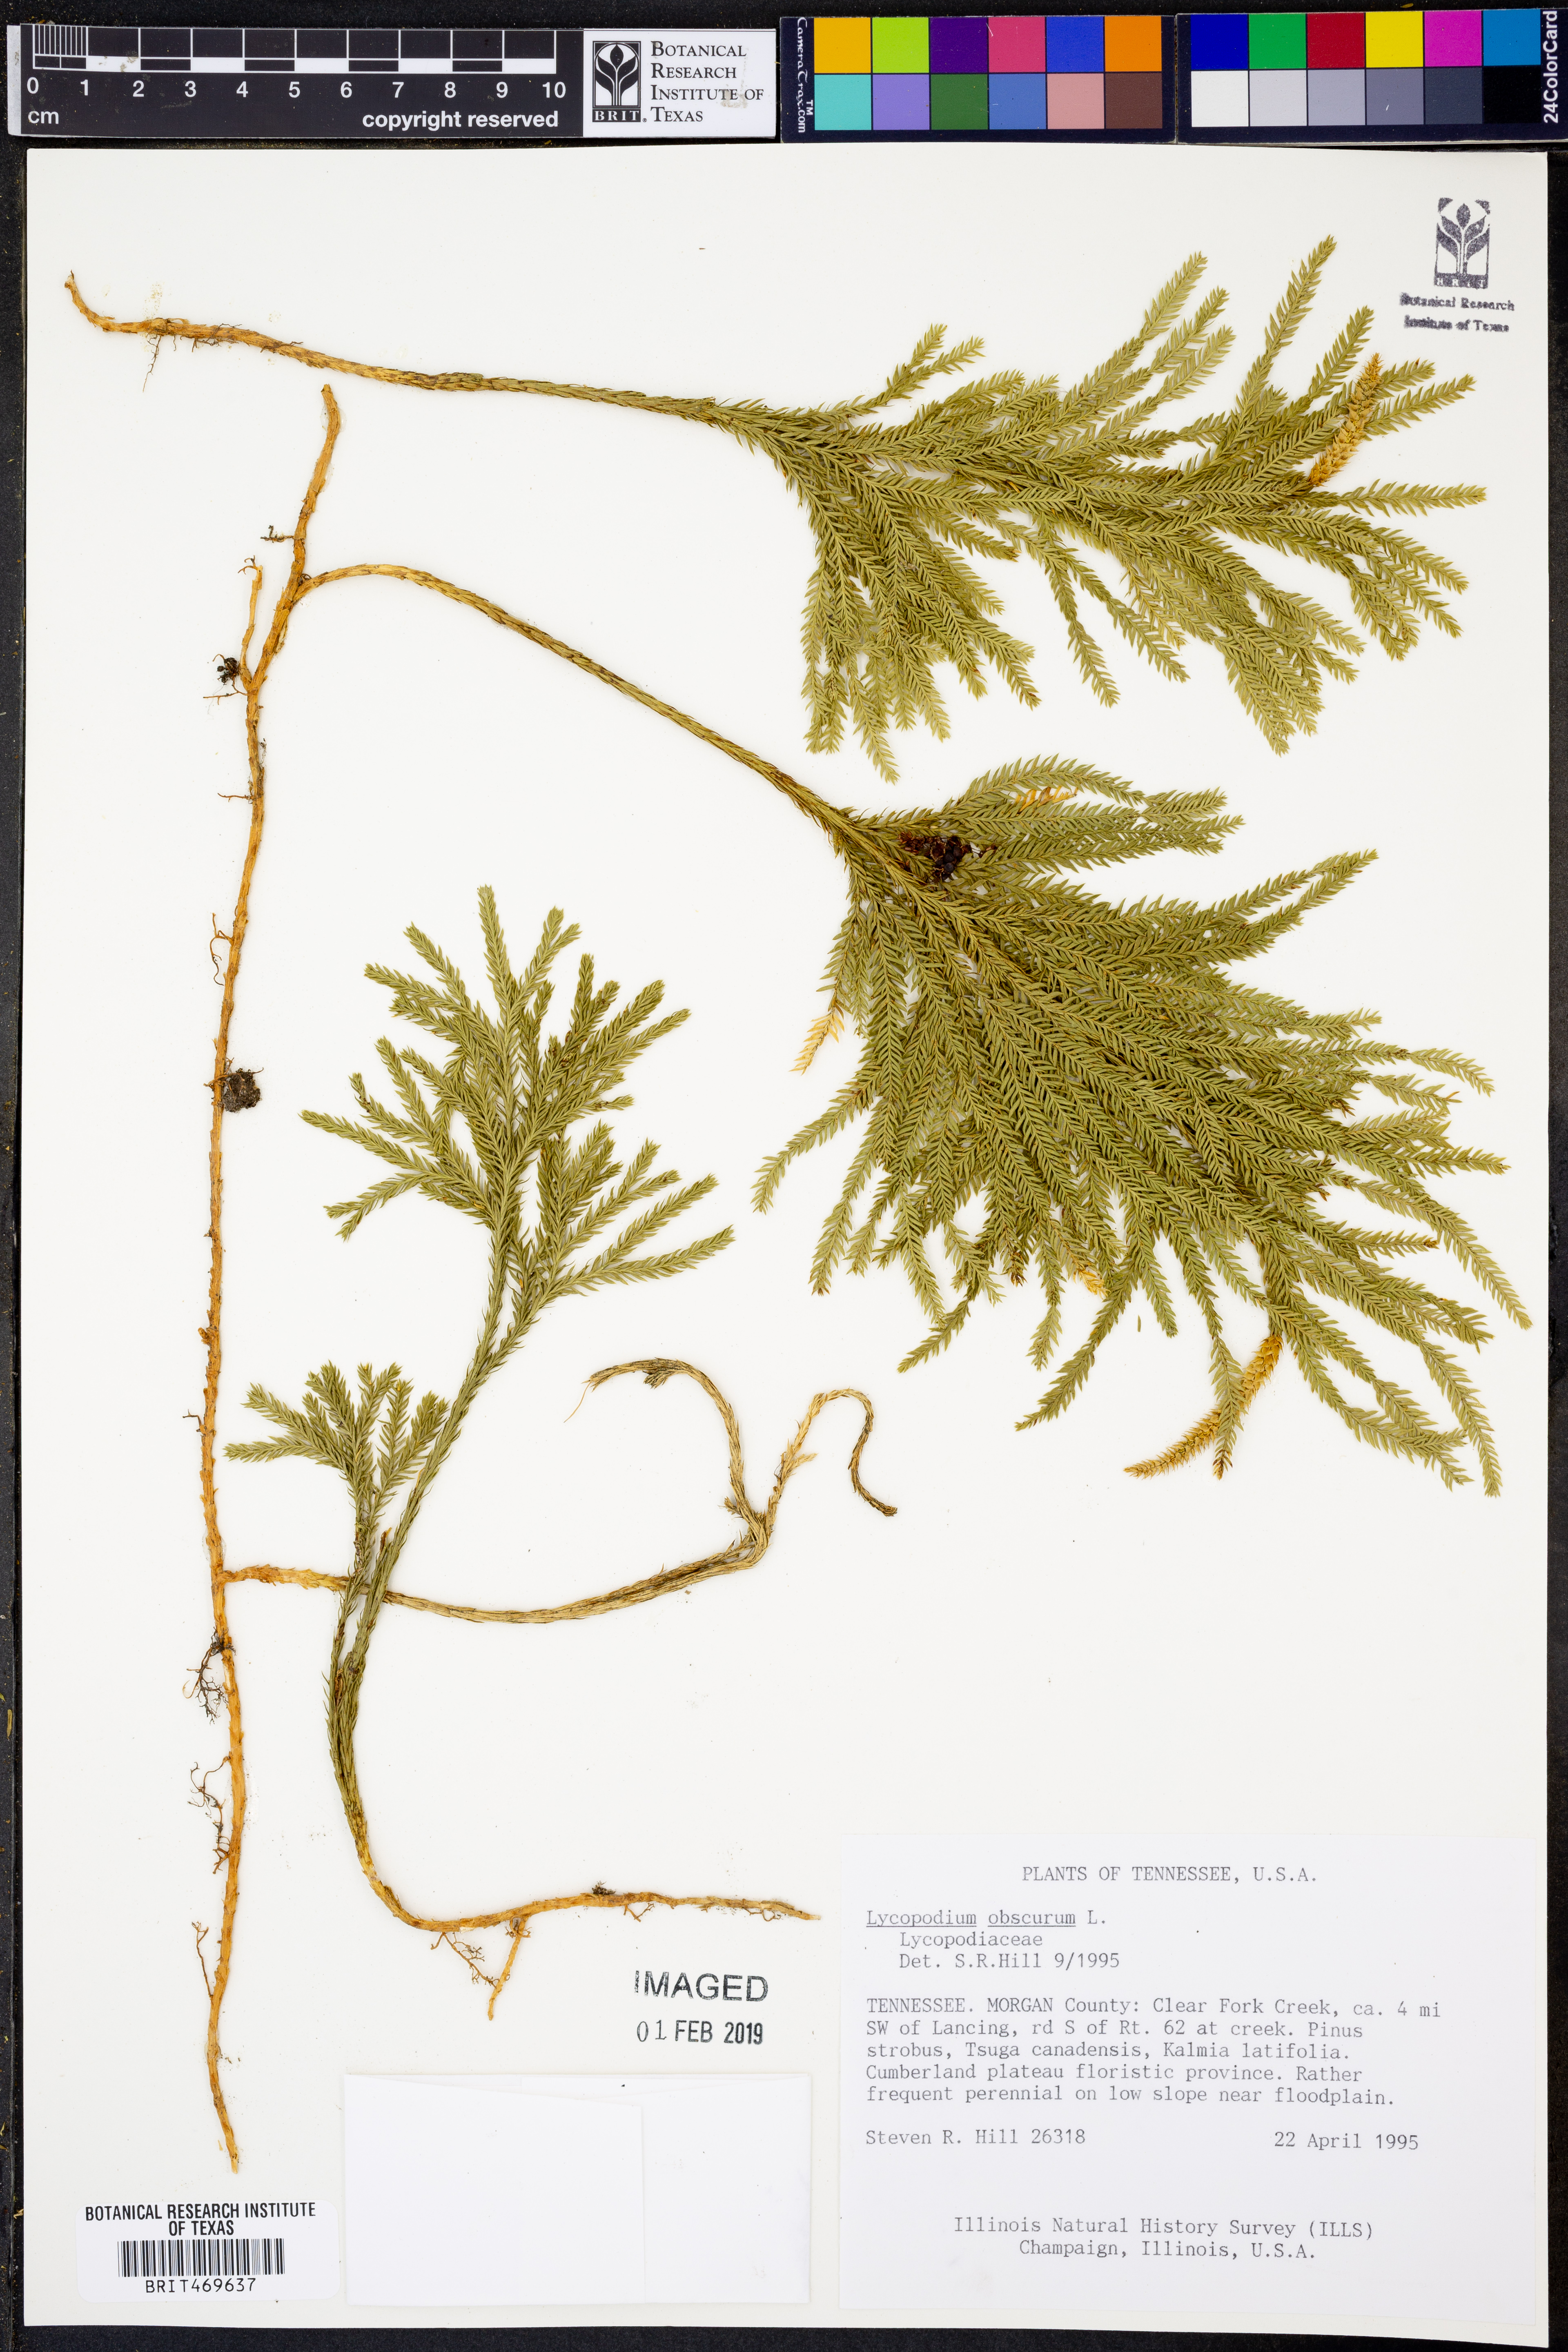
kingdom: Plantae
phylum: Tracheophyta
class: Lycopodiopsida
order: Lycopodiales
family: Lycopodiaceae
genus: Dendrolycopodium
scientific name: Dendrolycopodium obscurum
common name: Common ground-pine
